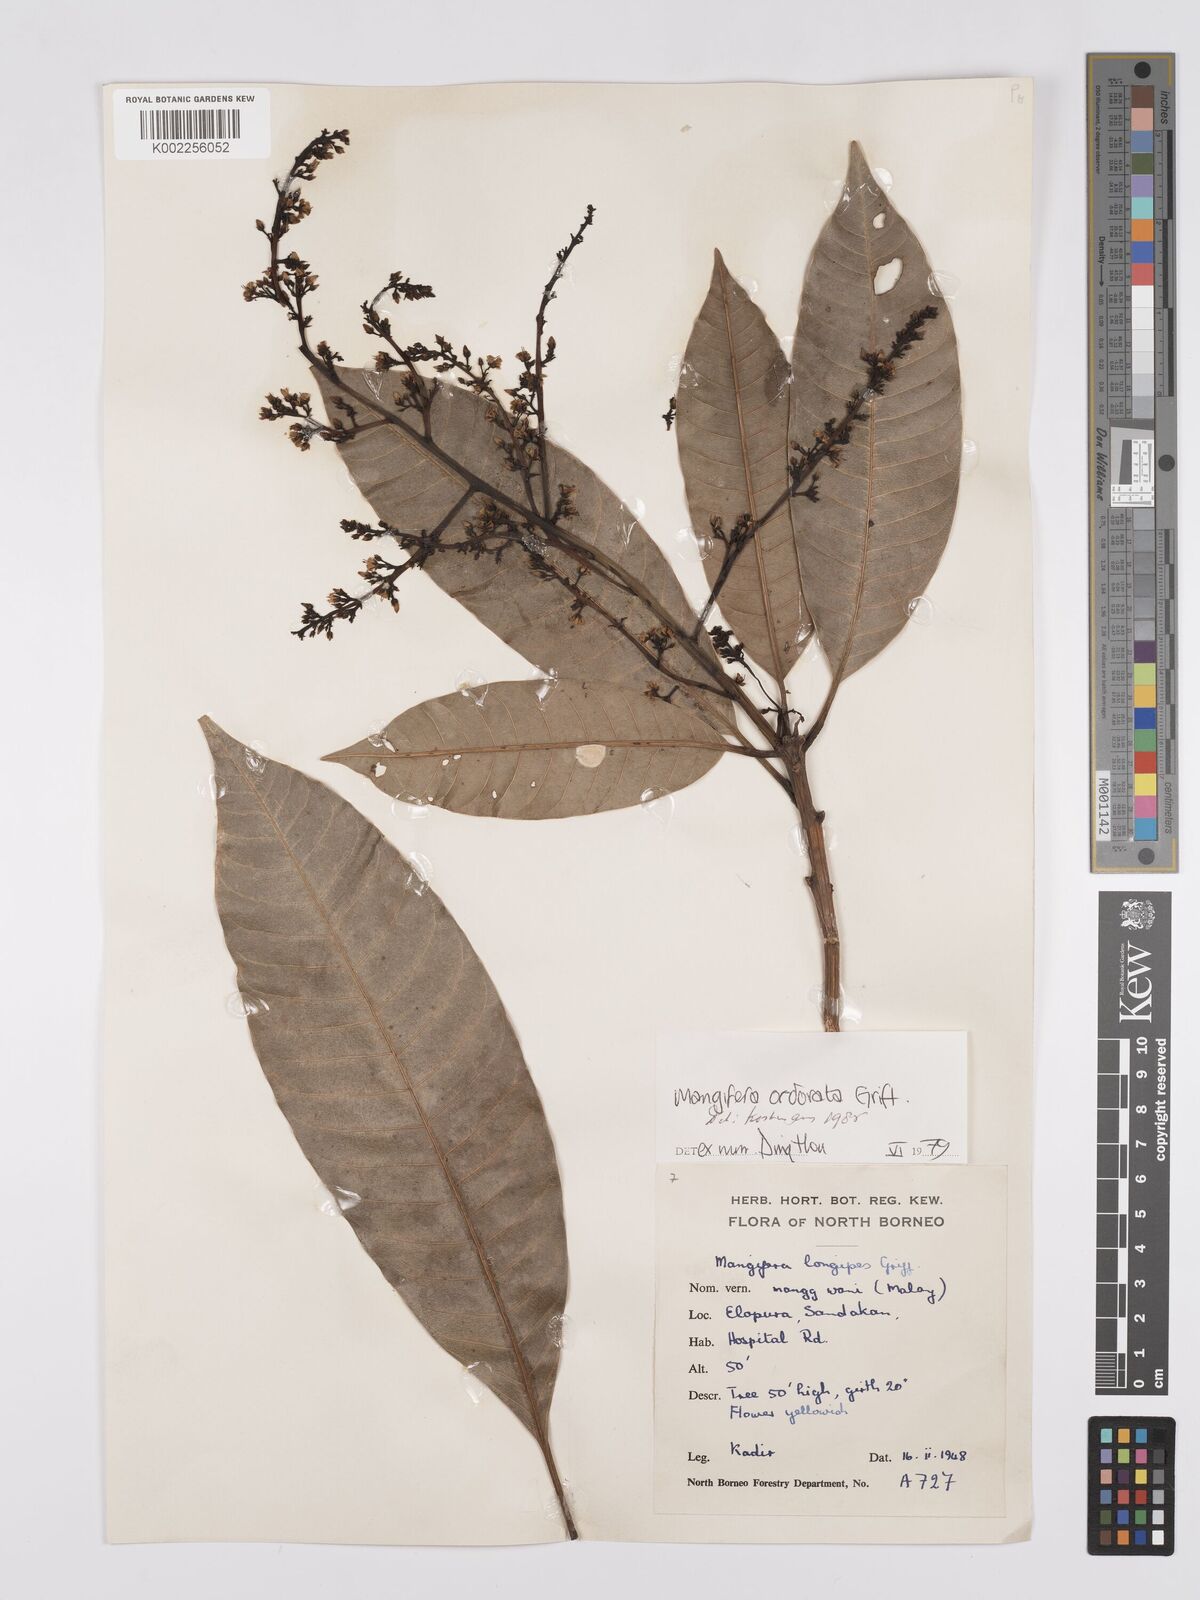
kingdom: Plantae
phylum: Tracheophyta
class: Magnoliopsida
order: Sapindales
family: Anacardiaceae
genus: Mangifera
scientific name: Mangifera odorata
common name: Saipan mango
